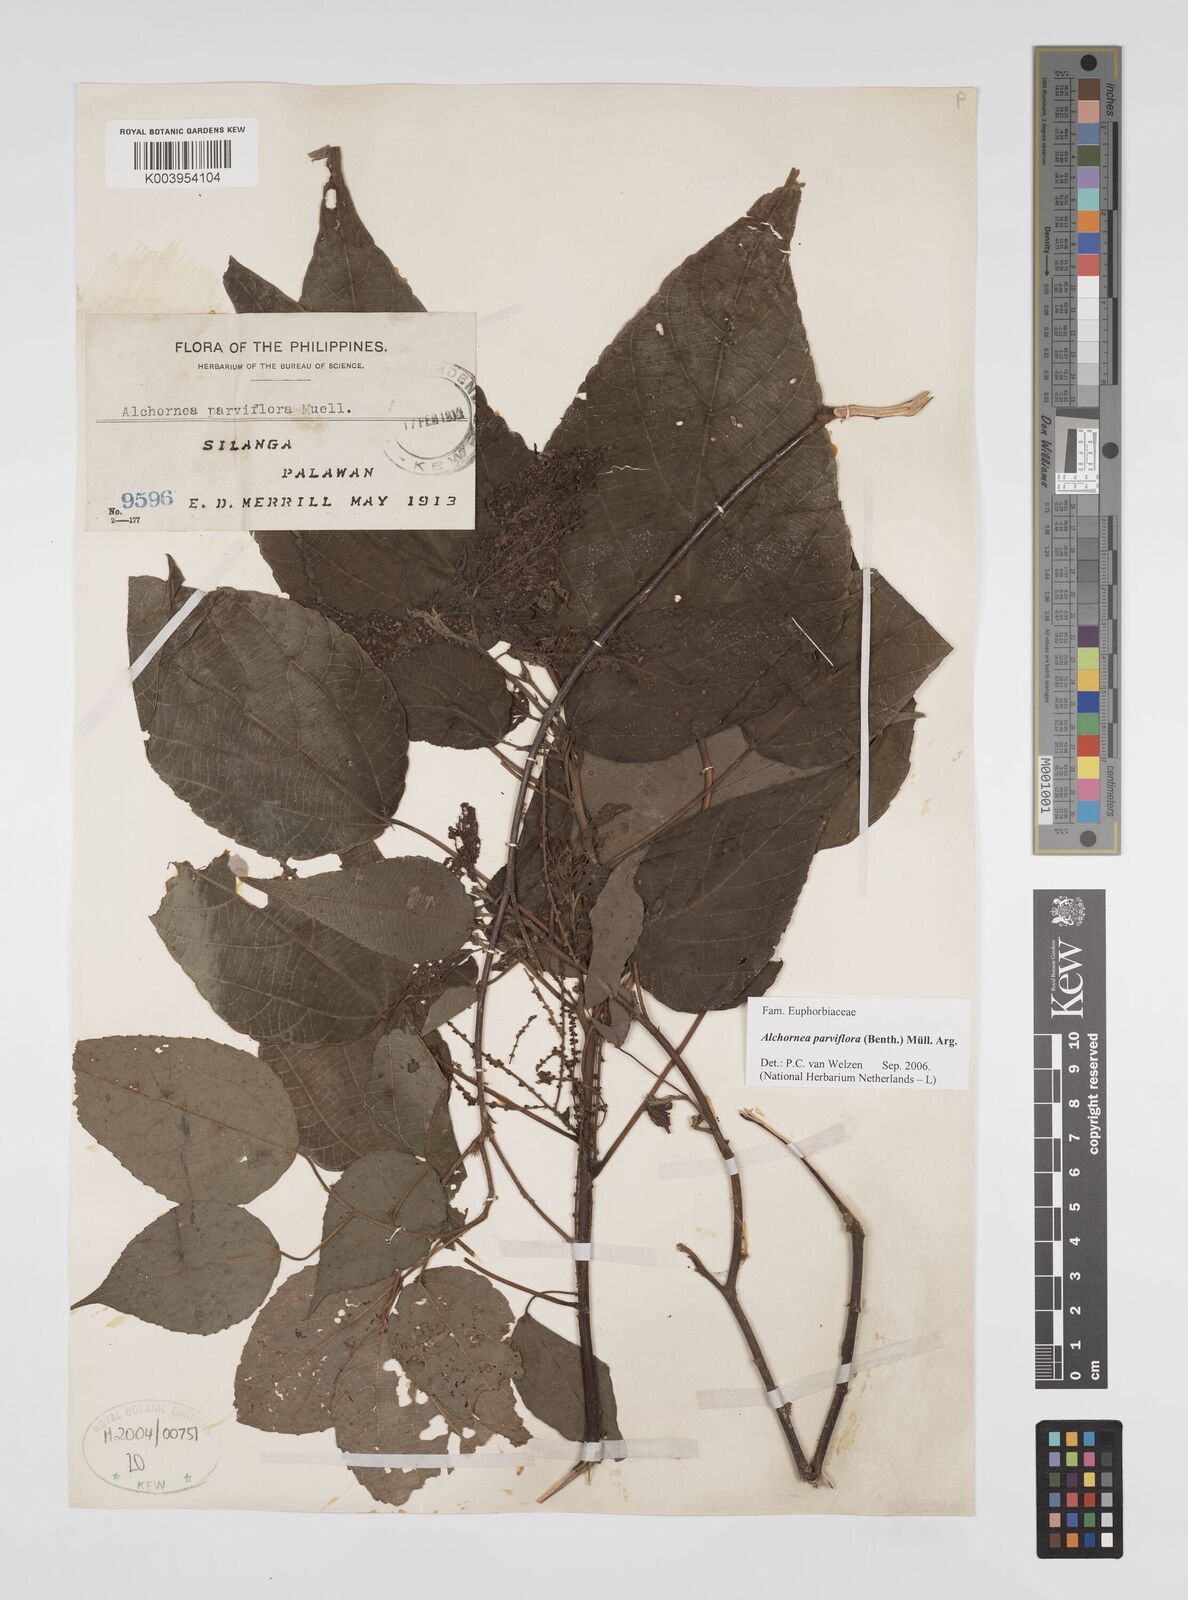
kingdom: Plantae
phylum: Tracheophyta
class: Magnoliopsida
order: Malpighiales
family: Euphorbiaceae
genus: Alchornea
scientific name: Alchornea parviflora
